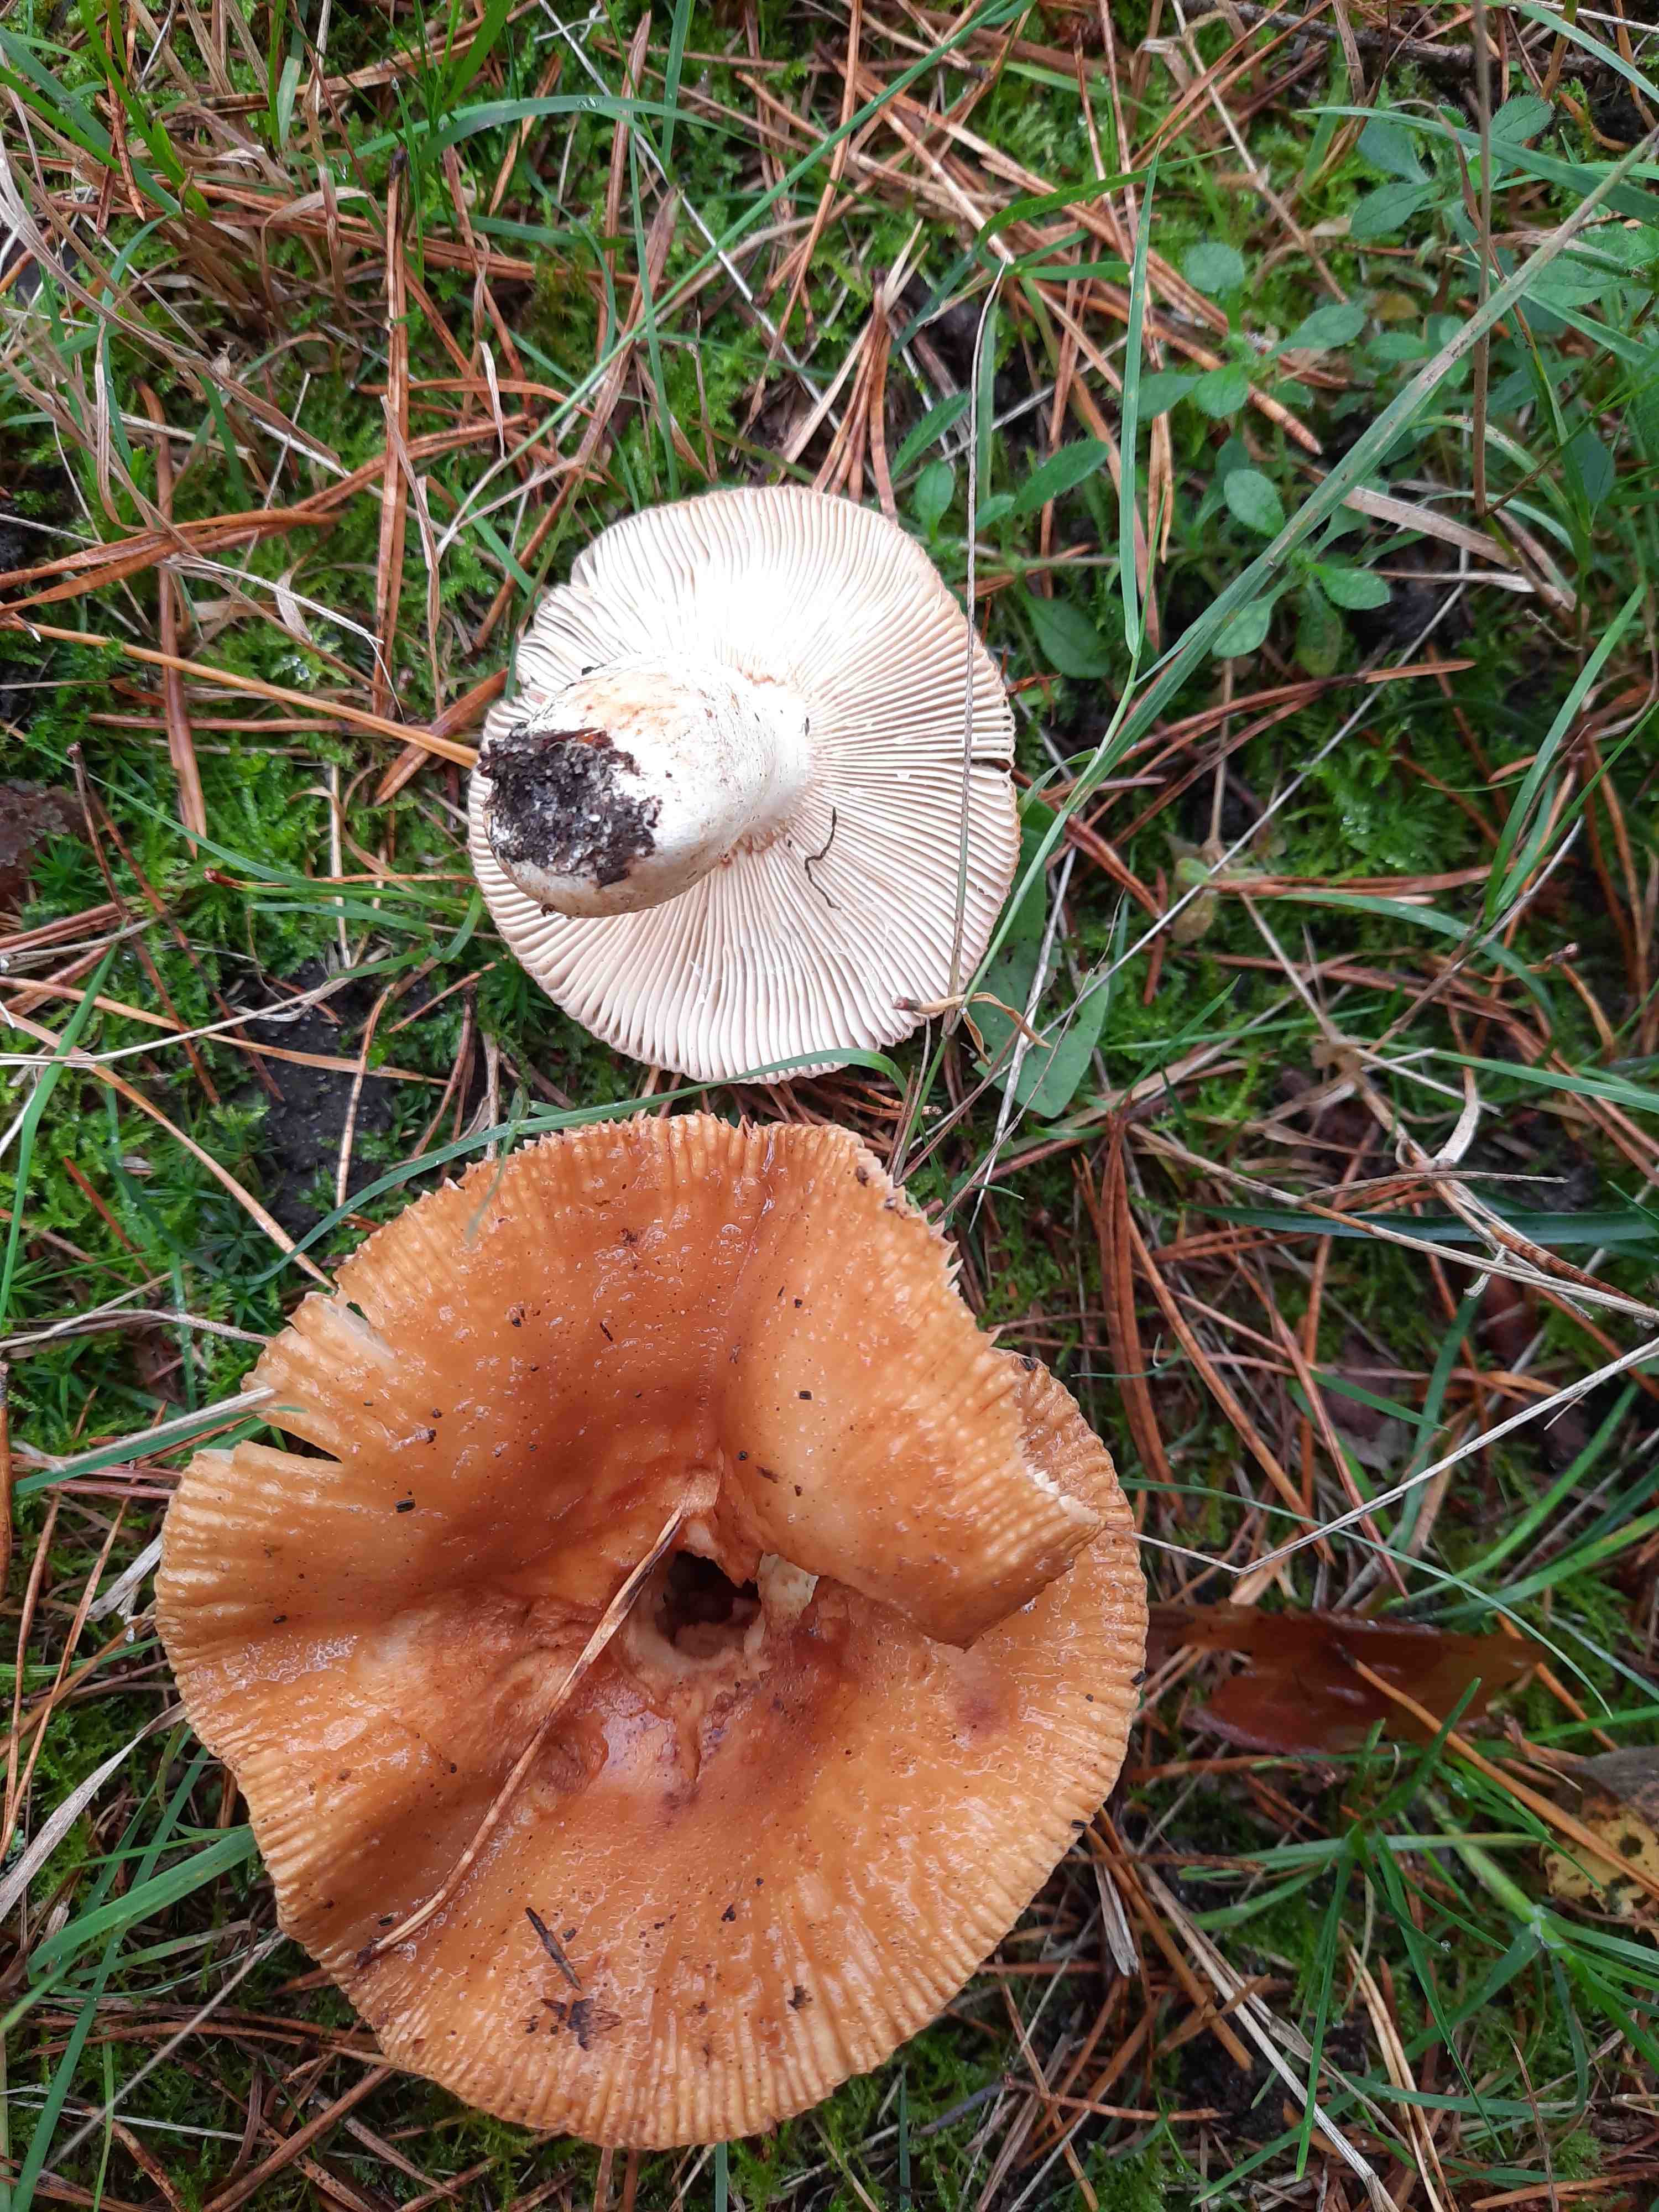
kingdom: Fungi
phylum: Basidiomycota
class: Agaricomycetes
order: Russulales
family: Russulaceae
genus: Russula
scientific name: Russula
